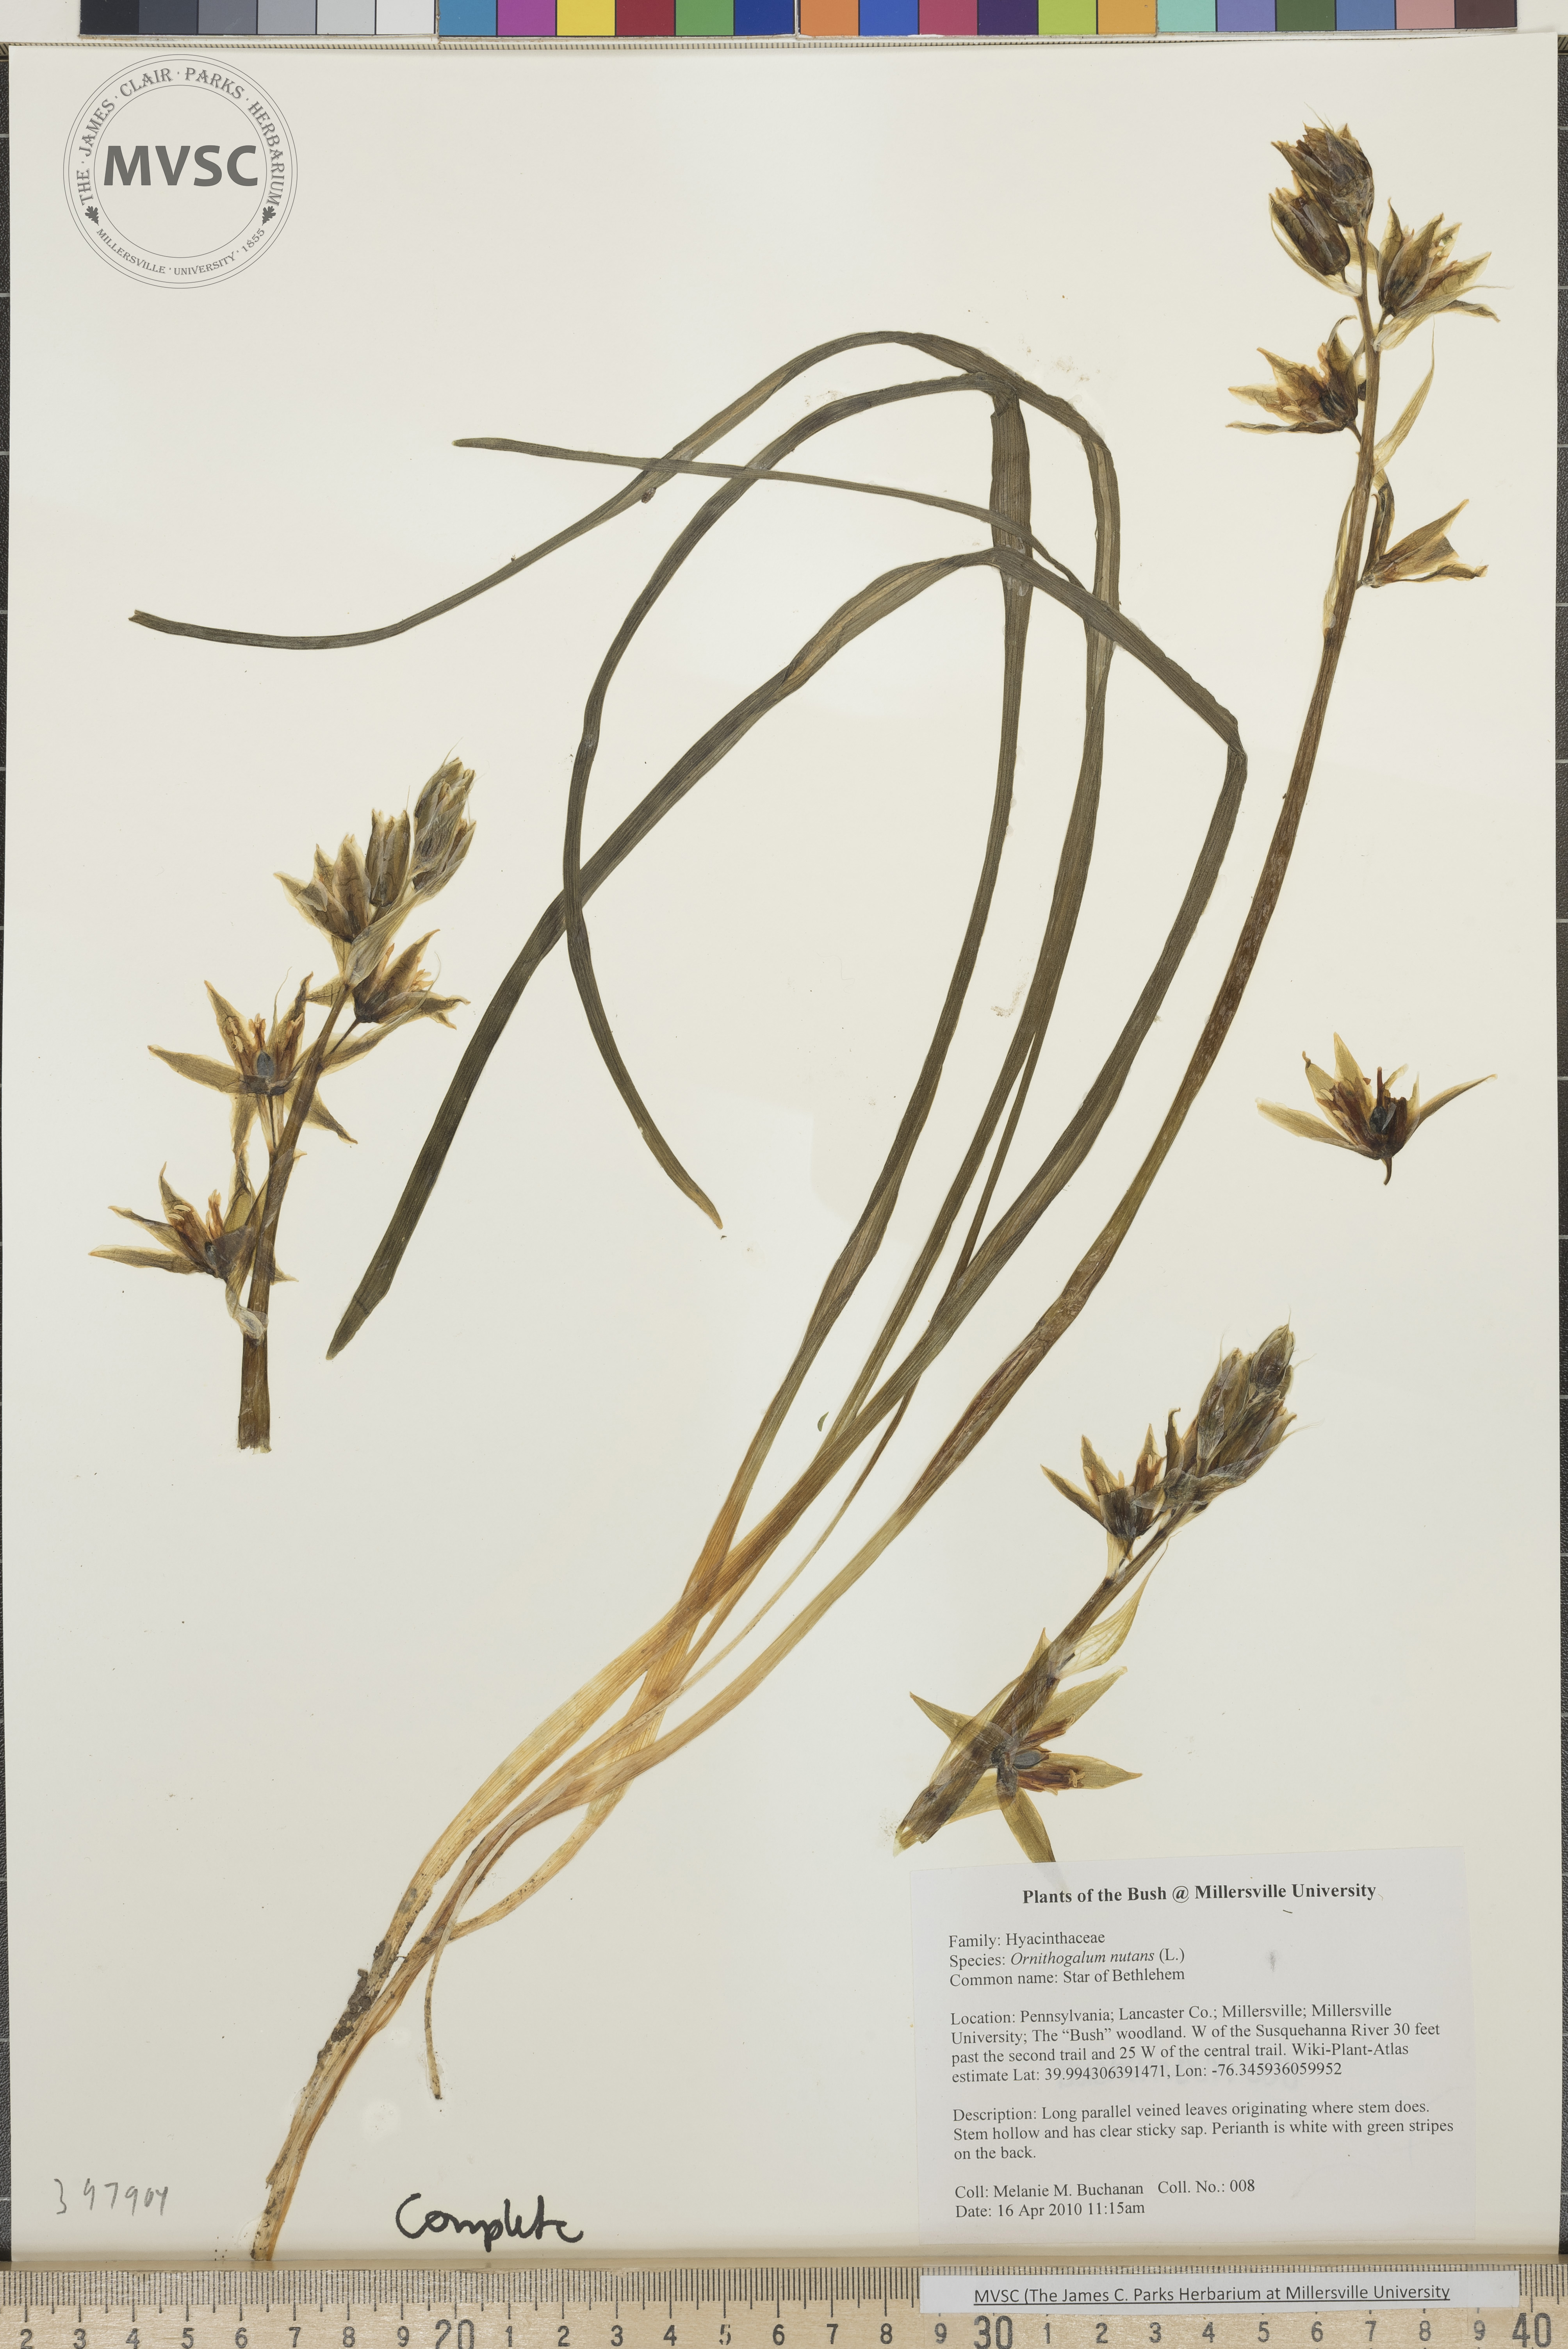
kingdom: Plantae
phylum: Tracheophyta
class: Liliopsida
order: Asparagales
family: Asparagaceae
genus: Ornithogalum
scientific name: Ornithogalum nutans
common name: Star-of-Bethlehem
